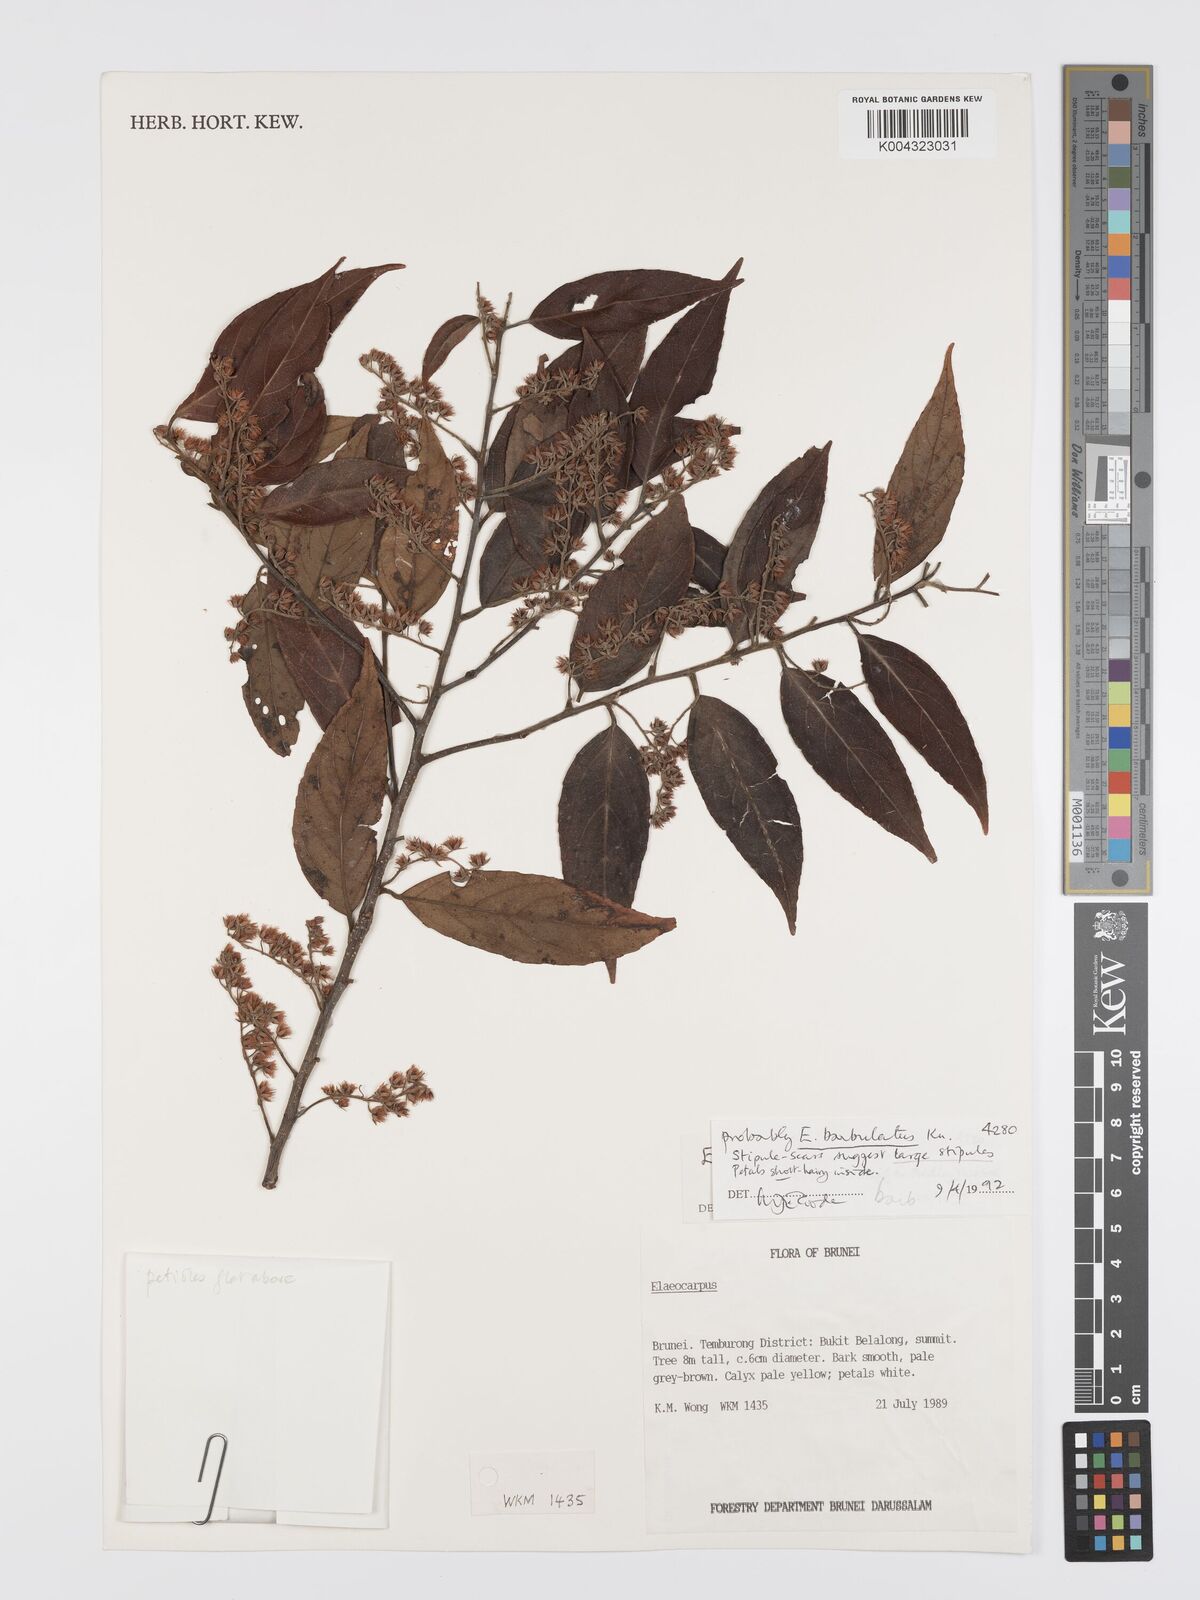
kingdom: Plantae
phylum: Tracheophyta
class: Magnoliopsida
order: Oxalidales
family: Elaeocarpaceae
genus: Elaeocarpus
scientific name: Elaeocarpus barbulatus
